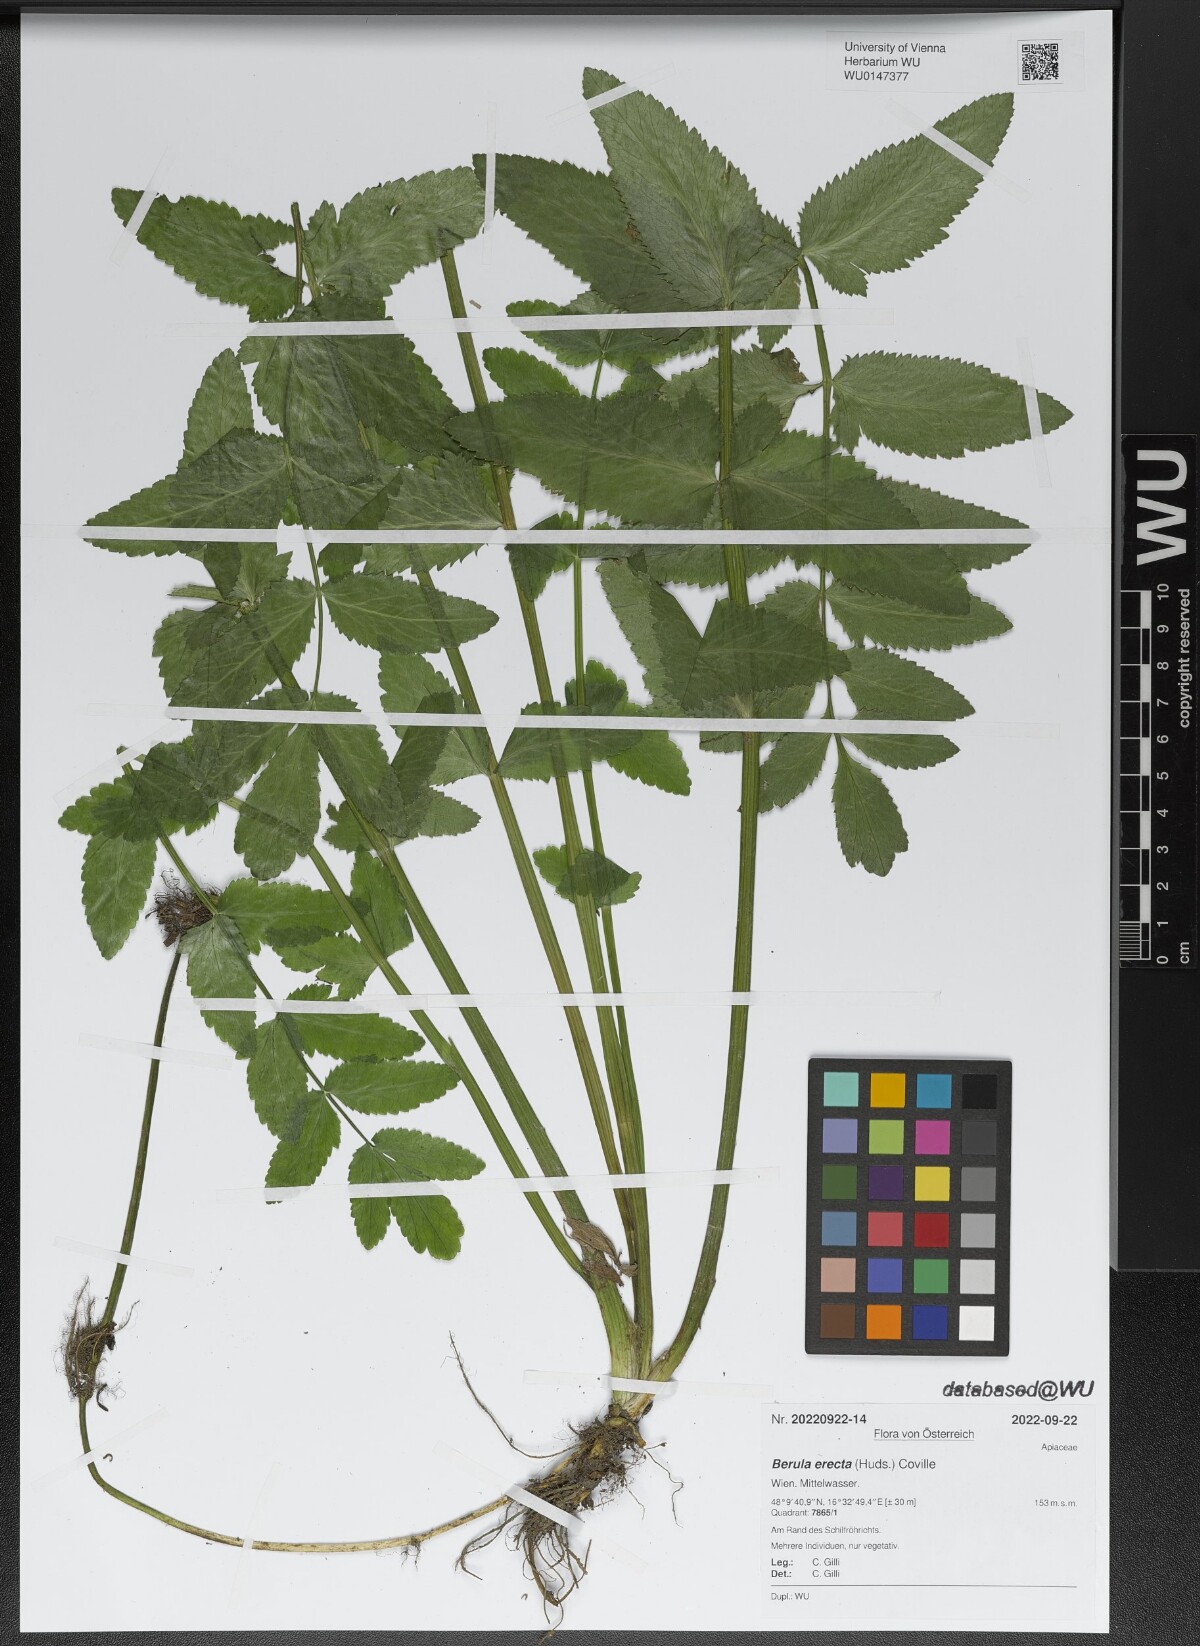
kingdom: Plantae
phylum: Tracheophyta
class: Magnoliopsida
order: Apiales
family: Apiaceae
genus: Berula
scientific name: Berula erecta
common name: Lesser water-parsnip
